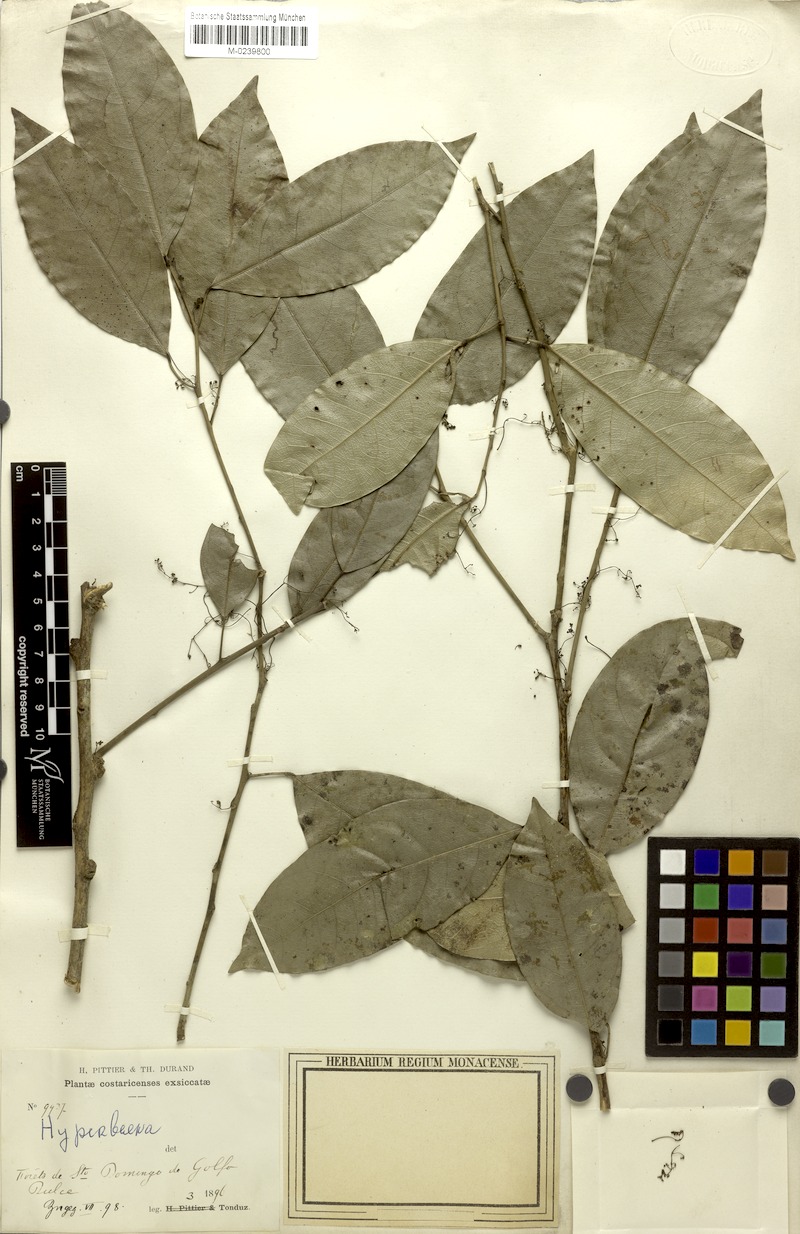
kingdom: Plantae
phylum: Tracheophyta
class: Magnoliopsida
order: Ranunculales
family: Menispermaceae
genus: Hyperbaena
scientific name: Hyperbaena leptobotryosa
